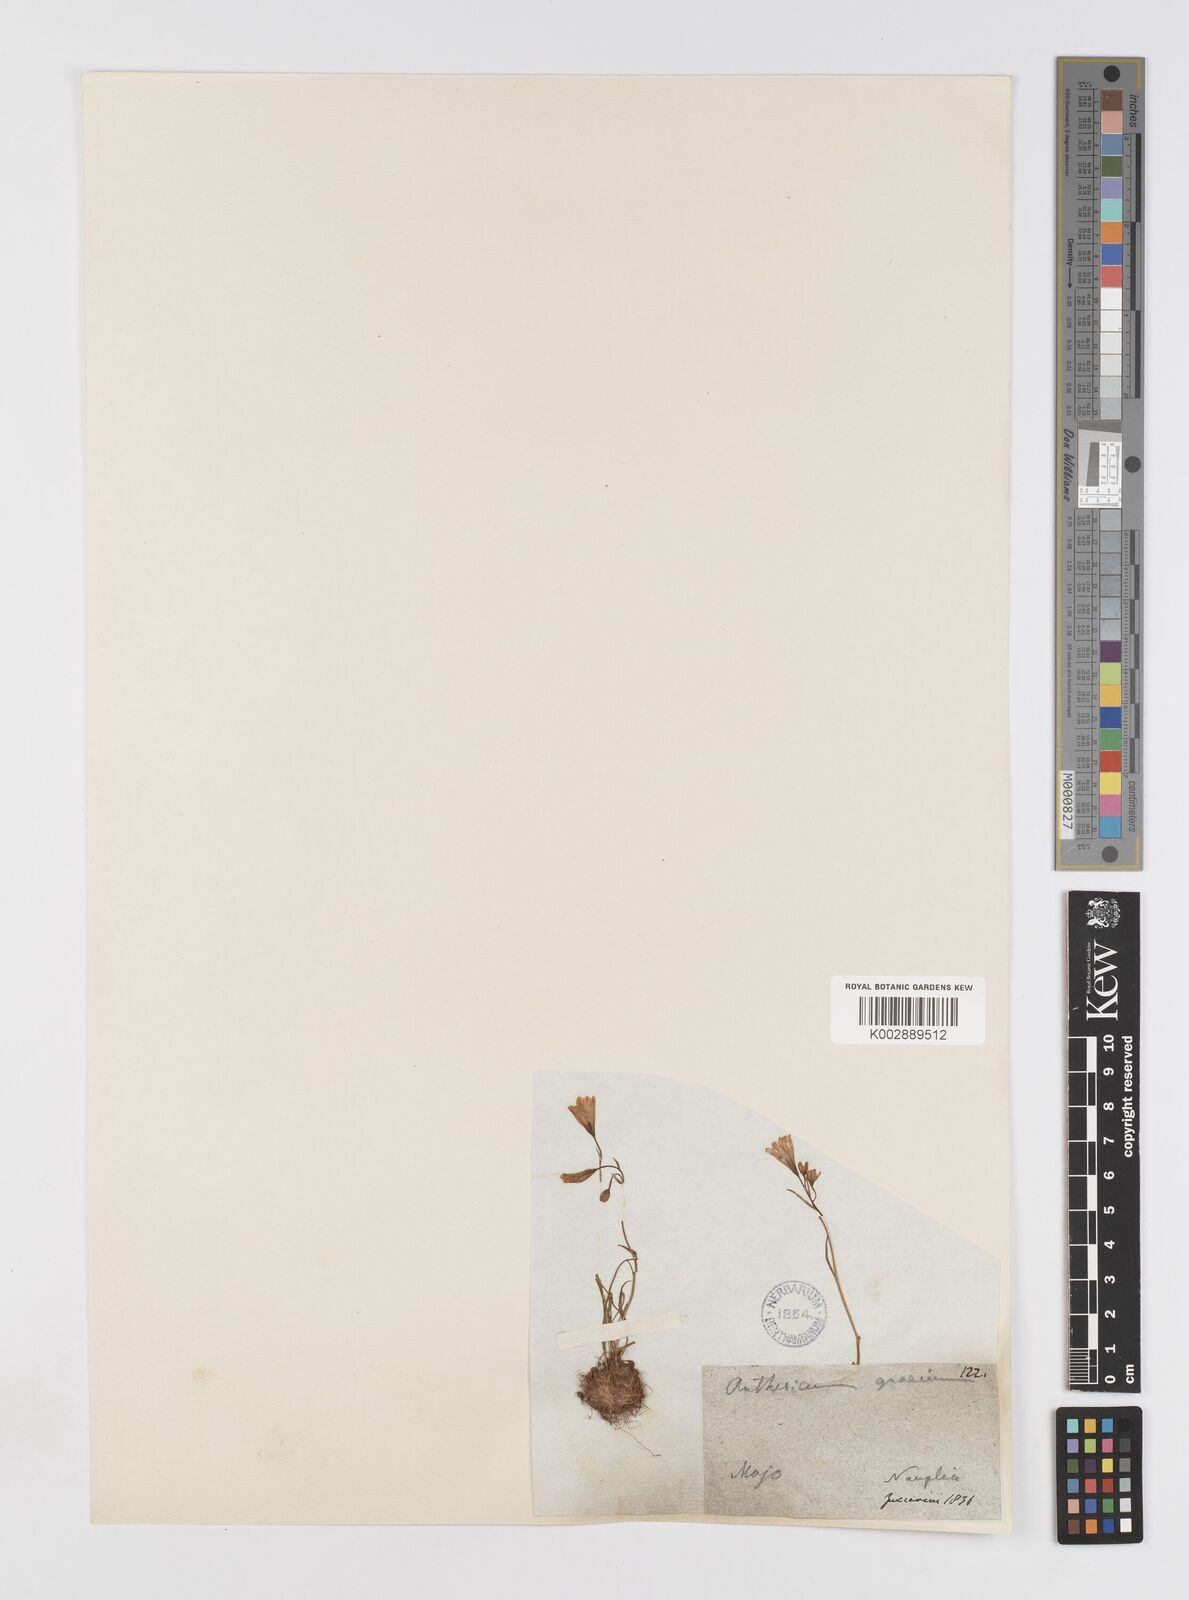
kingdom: Plantae
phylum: Tracheophyta
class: Liliopsida
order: Liliales
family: Liliaceae
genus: Gagea
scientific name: Gagea graeca
